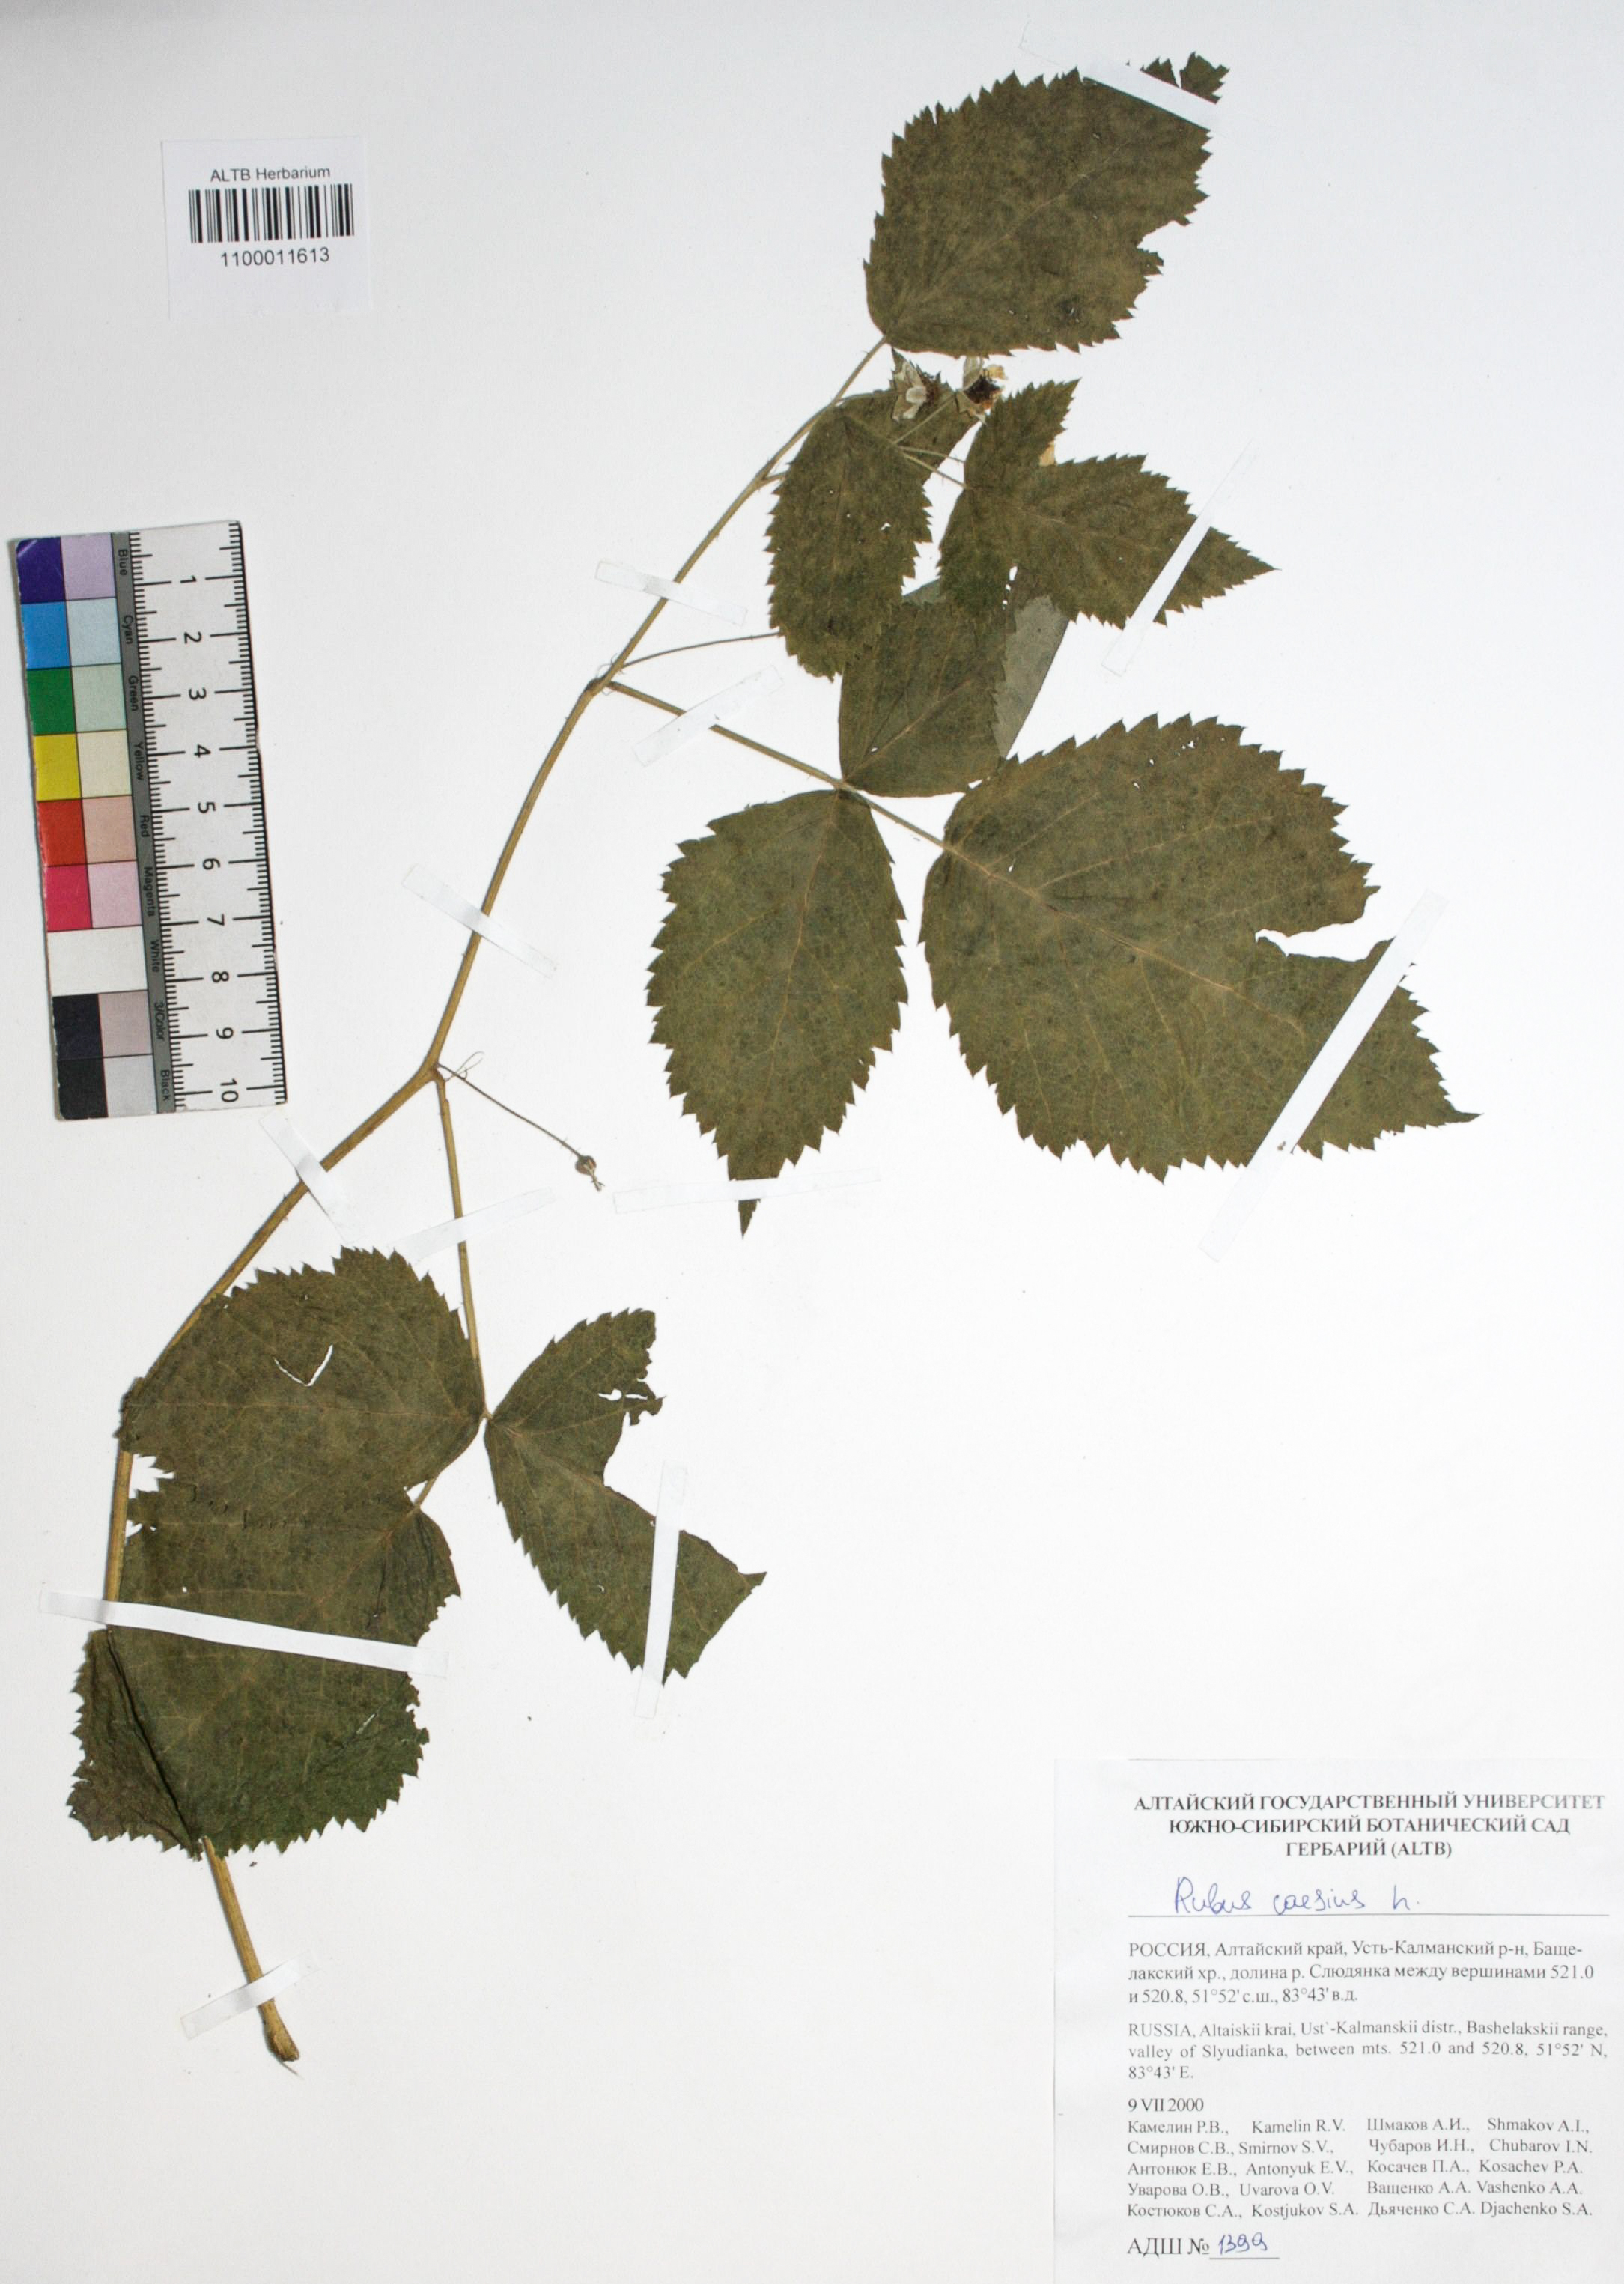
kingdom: Plantae
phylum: Tracheophyta
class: Magnoliopsida
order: Rosales
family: Rosaceae
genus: Rubus
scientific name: Rubus idaeus
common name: Raspberry
